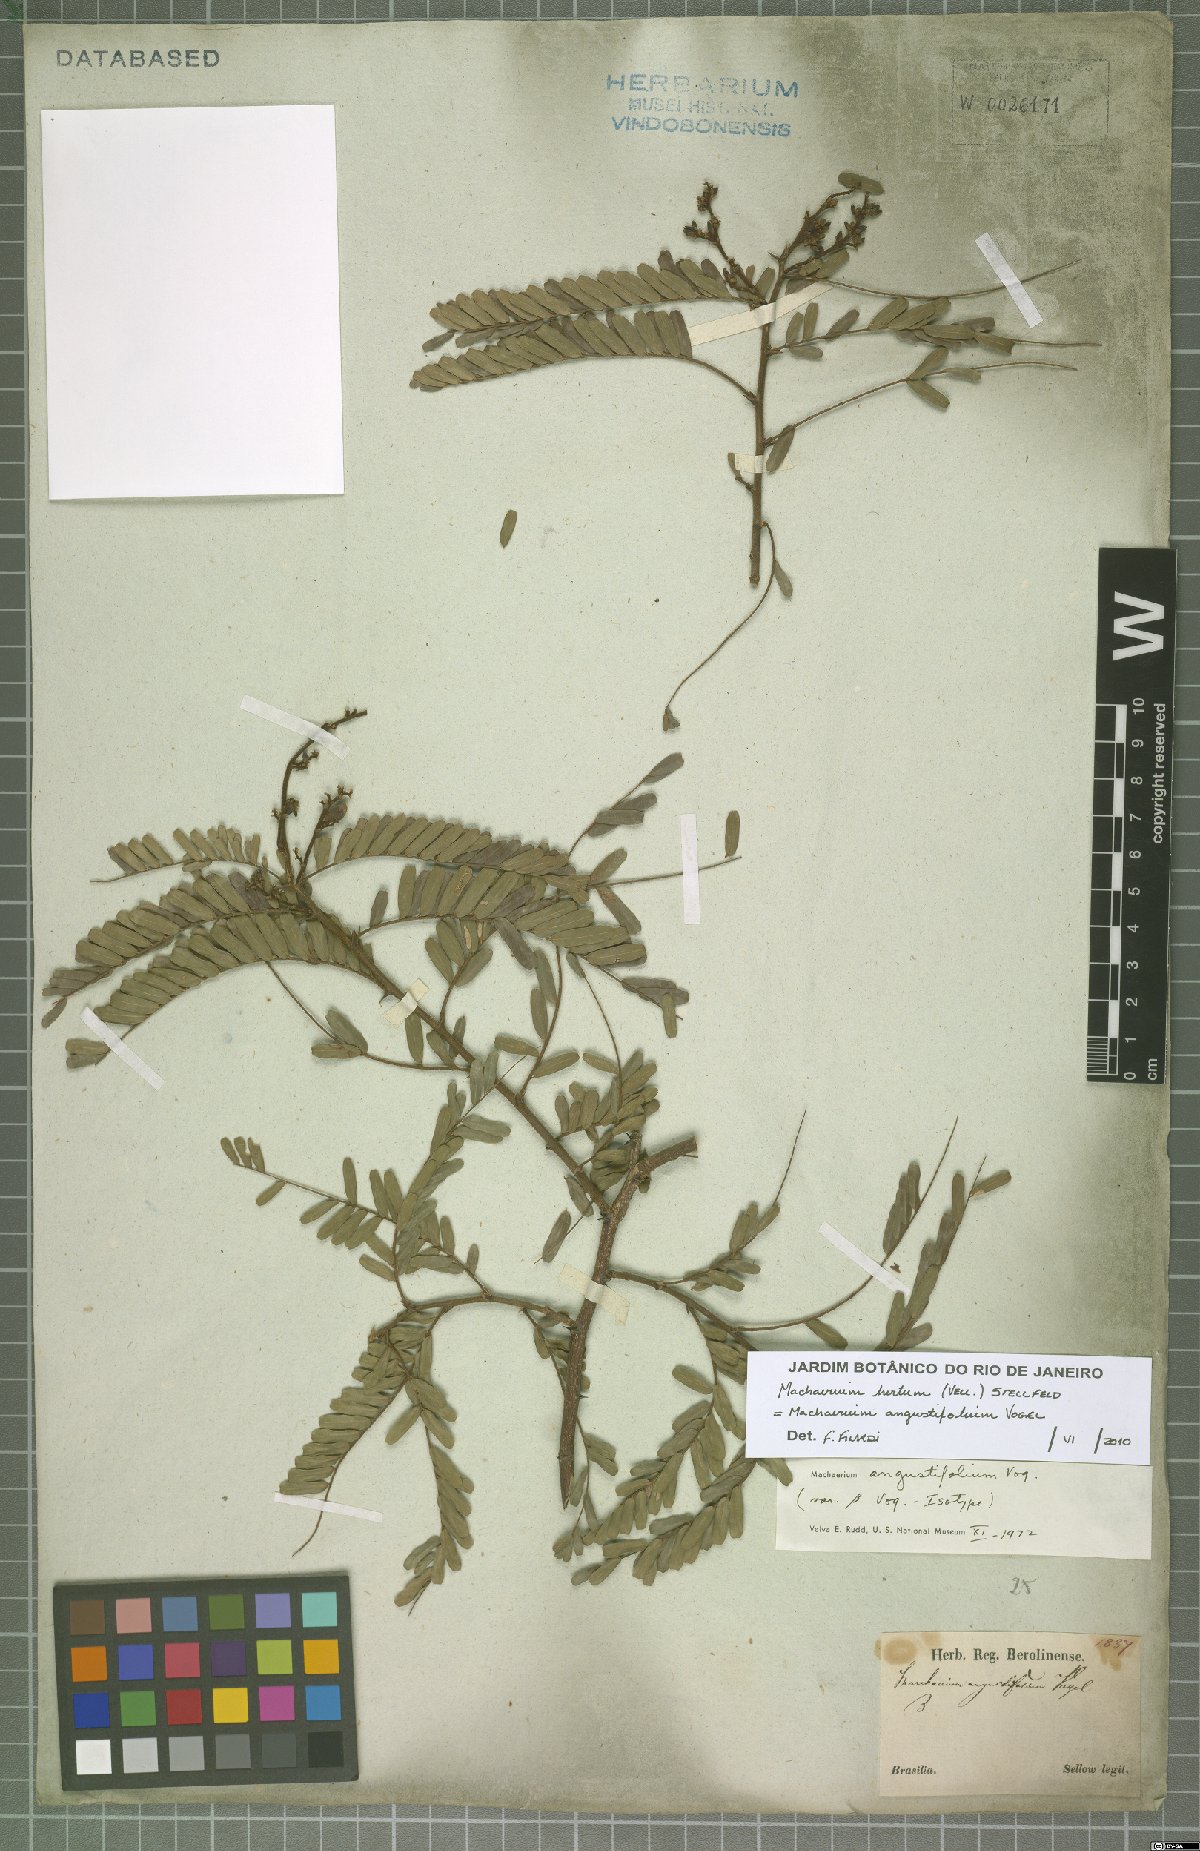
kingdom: Plantae
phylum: Tracheophyta
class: Magnoliopsida
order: Fabales
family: Fabaceae
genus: Machaerium
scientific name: Machaerium hirtum
